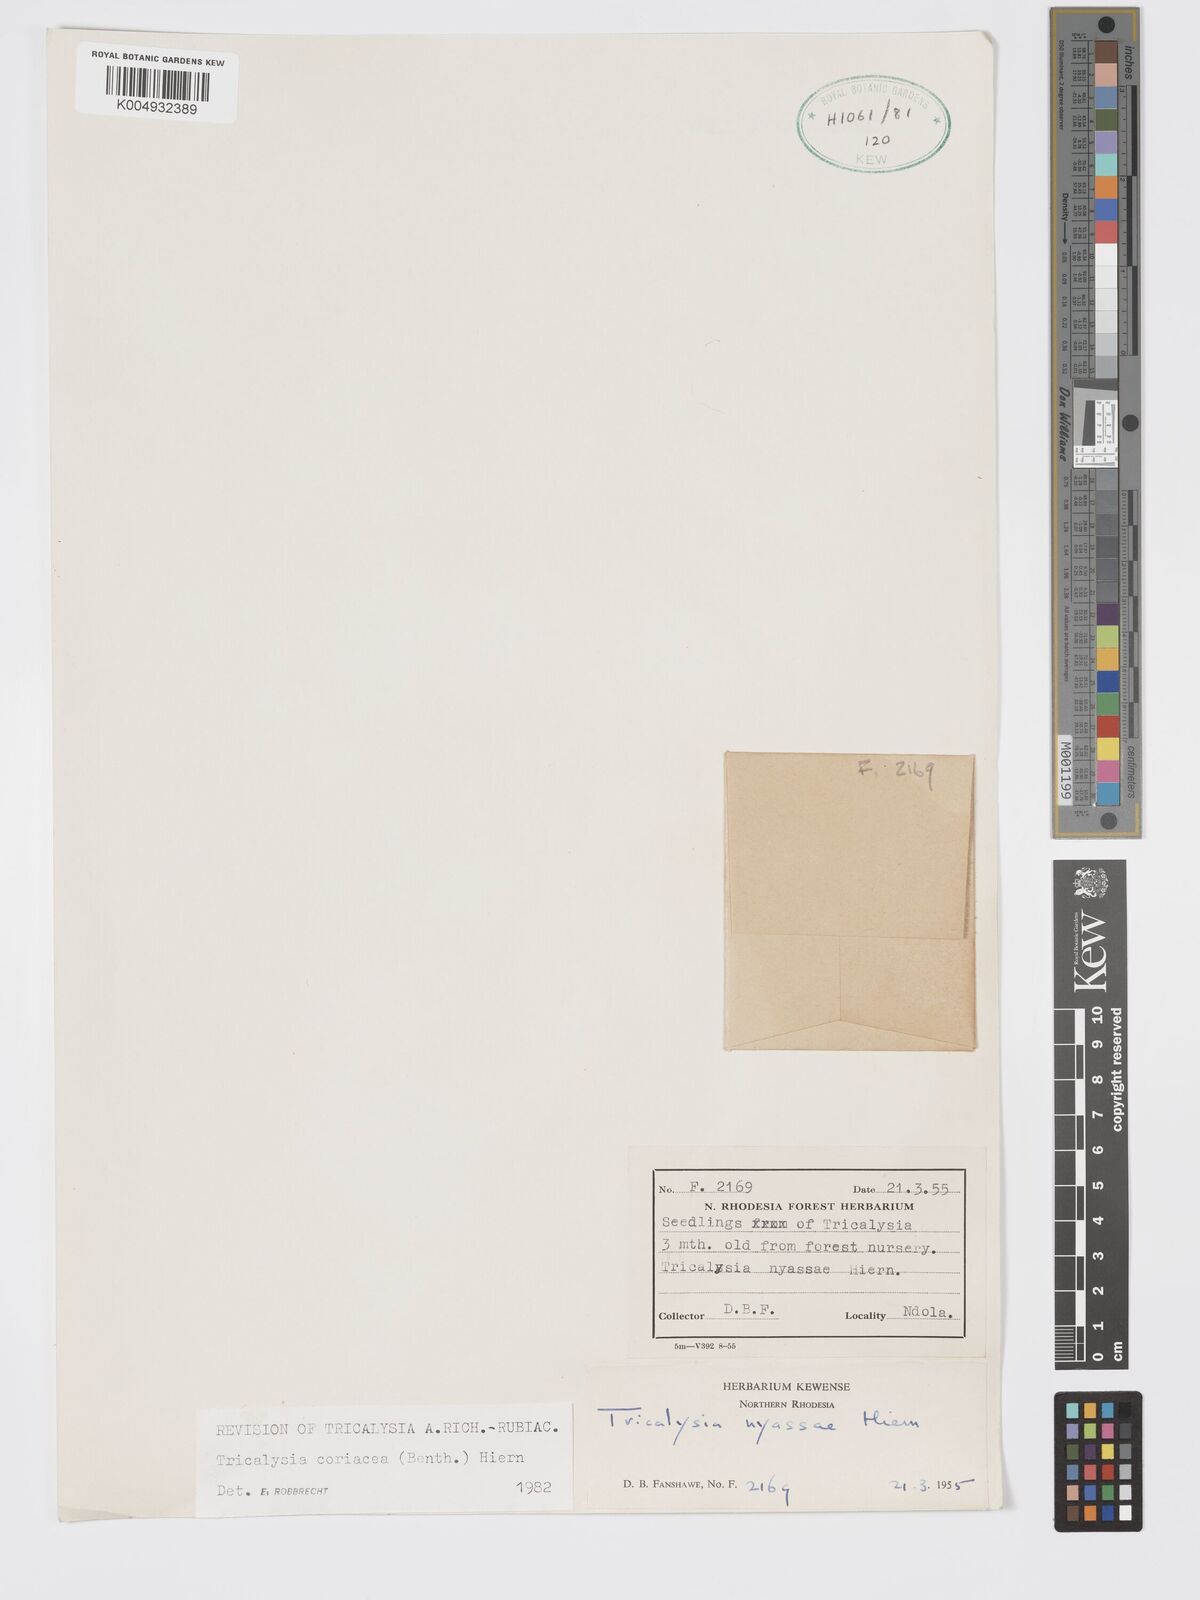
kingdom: Plantae
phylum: Tracheophyta
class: Magnoliopsida
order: Gentianales
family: Rubiaceae
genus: Tricalysia
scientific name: Tricalysia coriacea
